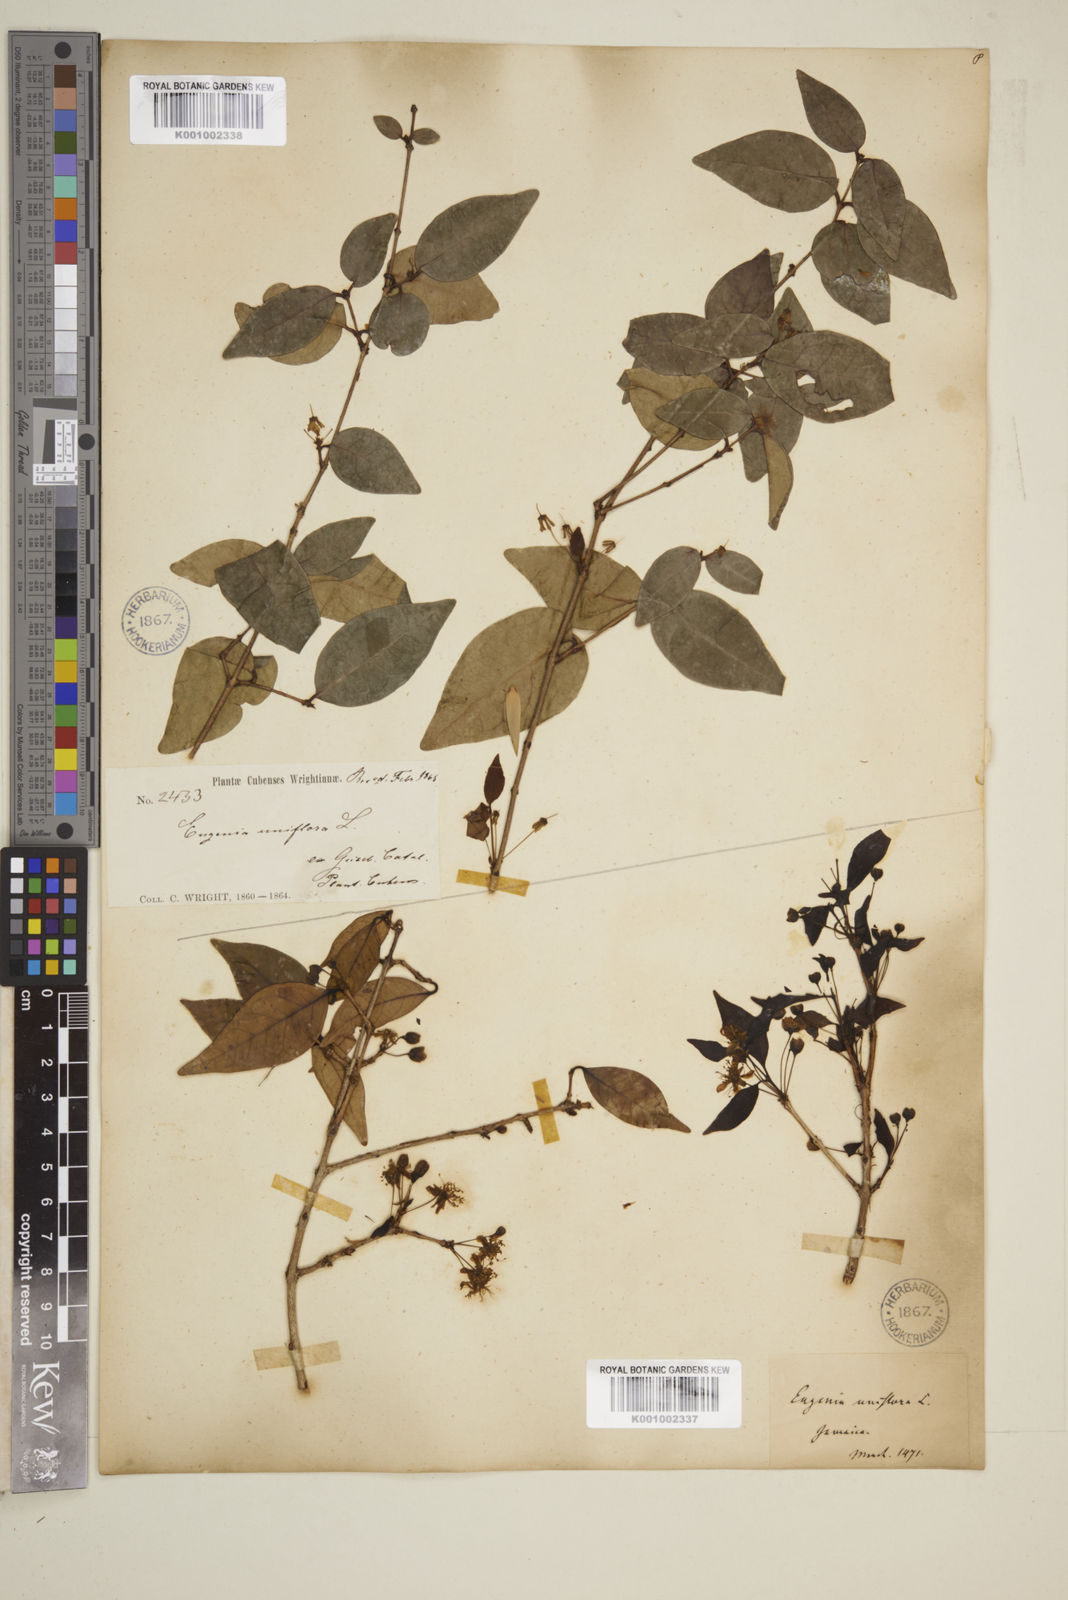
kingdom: Plantae
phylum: Tracheophyta
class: Magnoliopsida
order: Myrtales
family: Myrtaceae
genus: Eugenia
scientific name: Eugenia uniflora
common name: Surinam cherry
